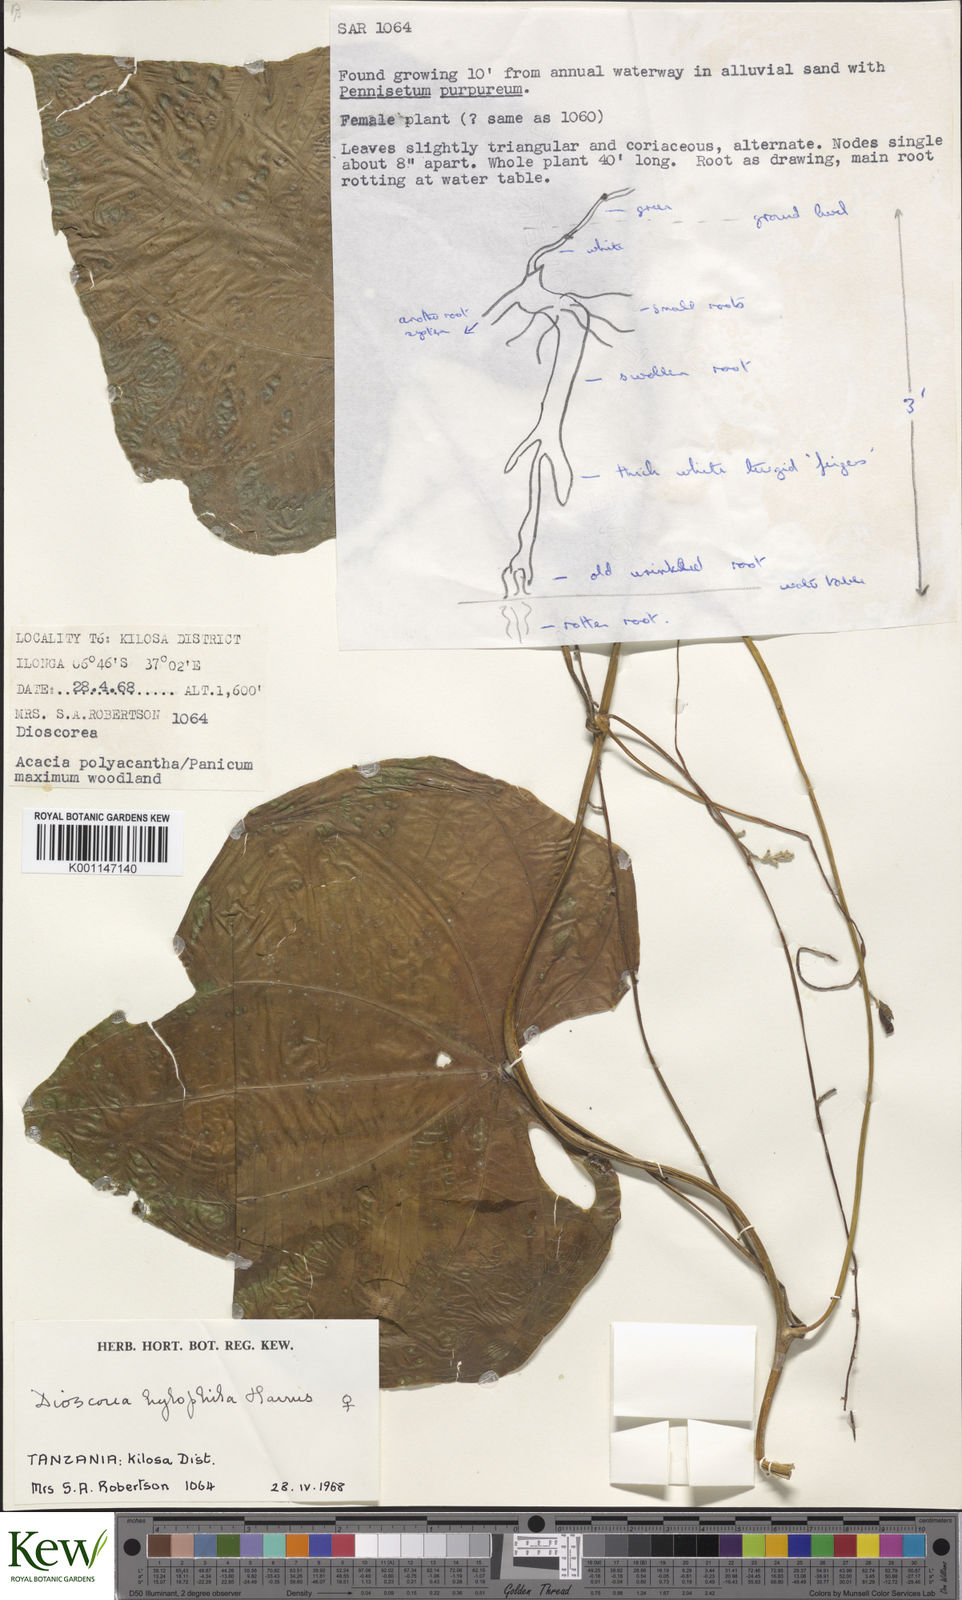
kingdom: Plantae
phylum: Tracheophyta
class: Liliopsida
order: Dioscoreales
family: Dioscoreaceae
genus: Dioscorea
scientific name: Dioscorea
